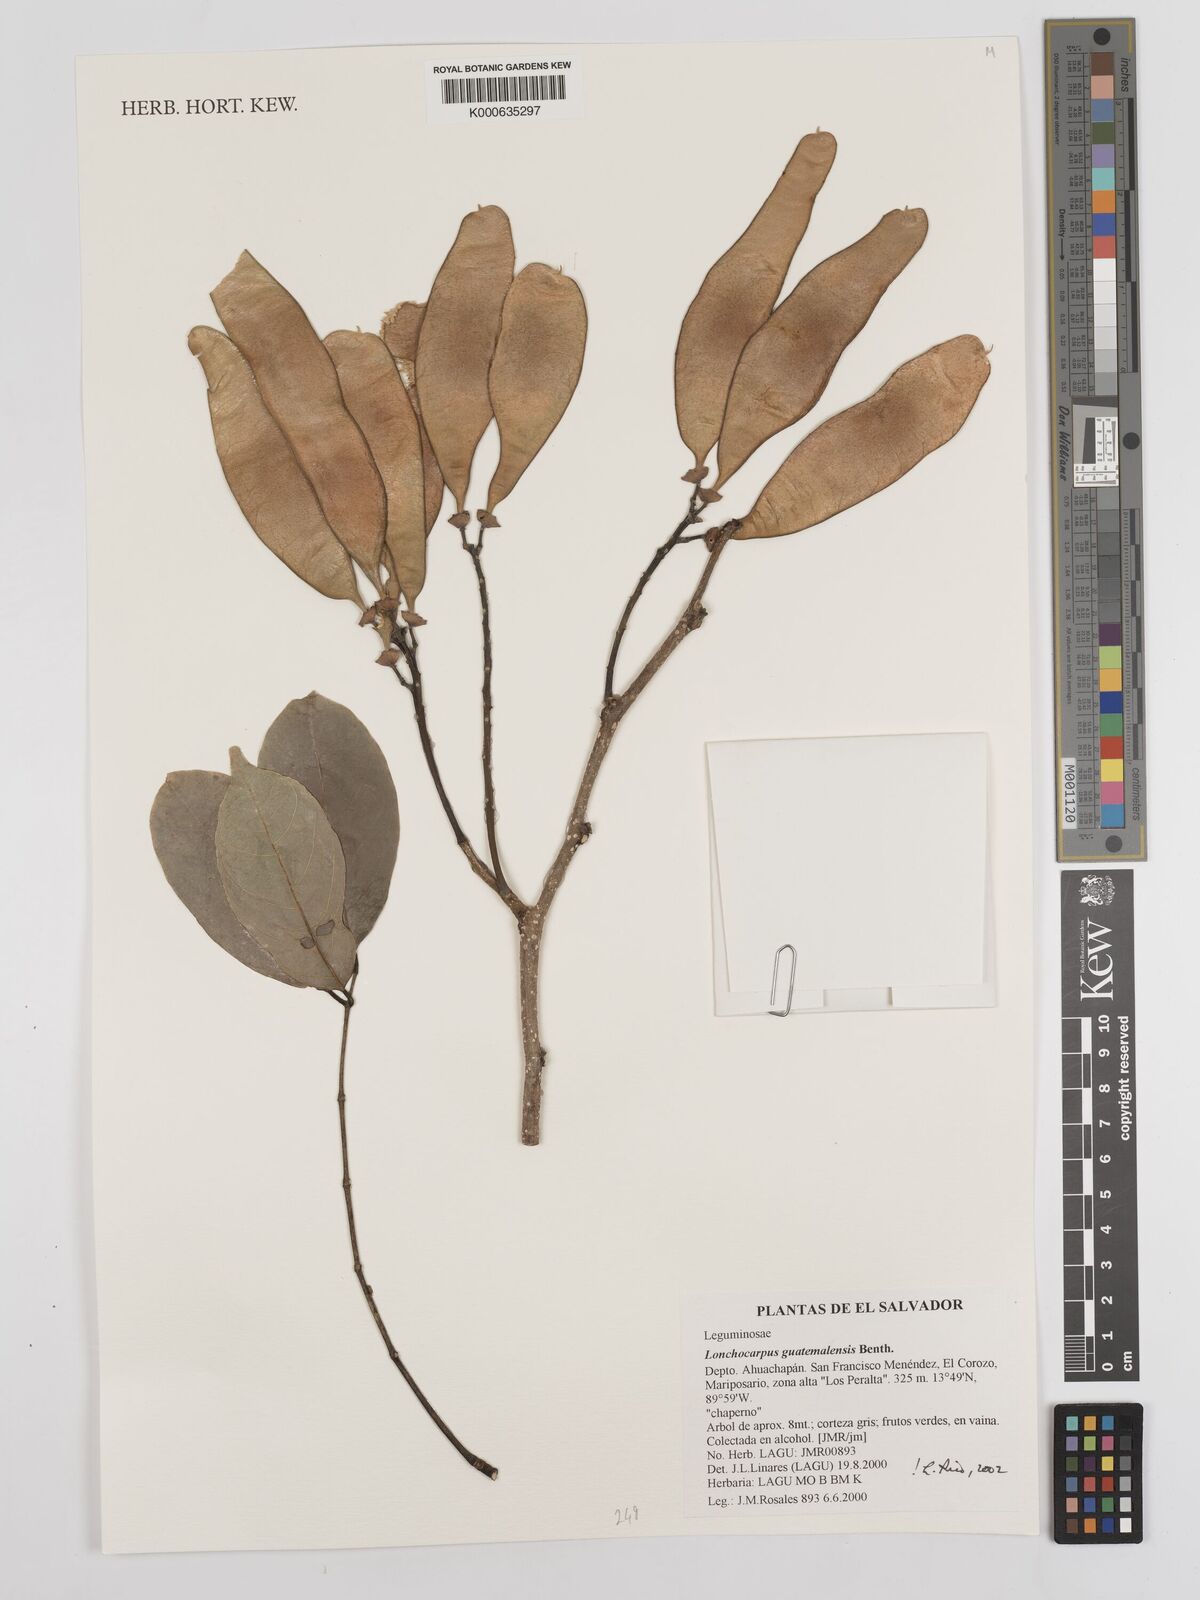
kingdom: Plantae
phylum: Tracheophyta
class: Magnoliopsida
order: Fabales
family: Fabaceae
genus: Lonchocarpus
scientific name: Lonchocarpus guatemalensis
